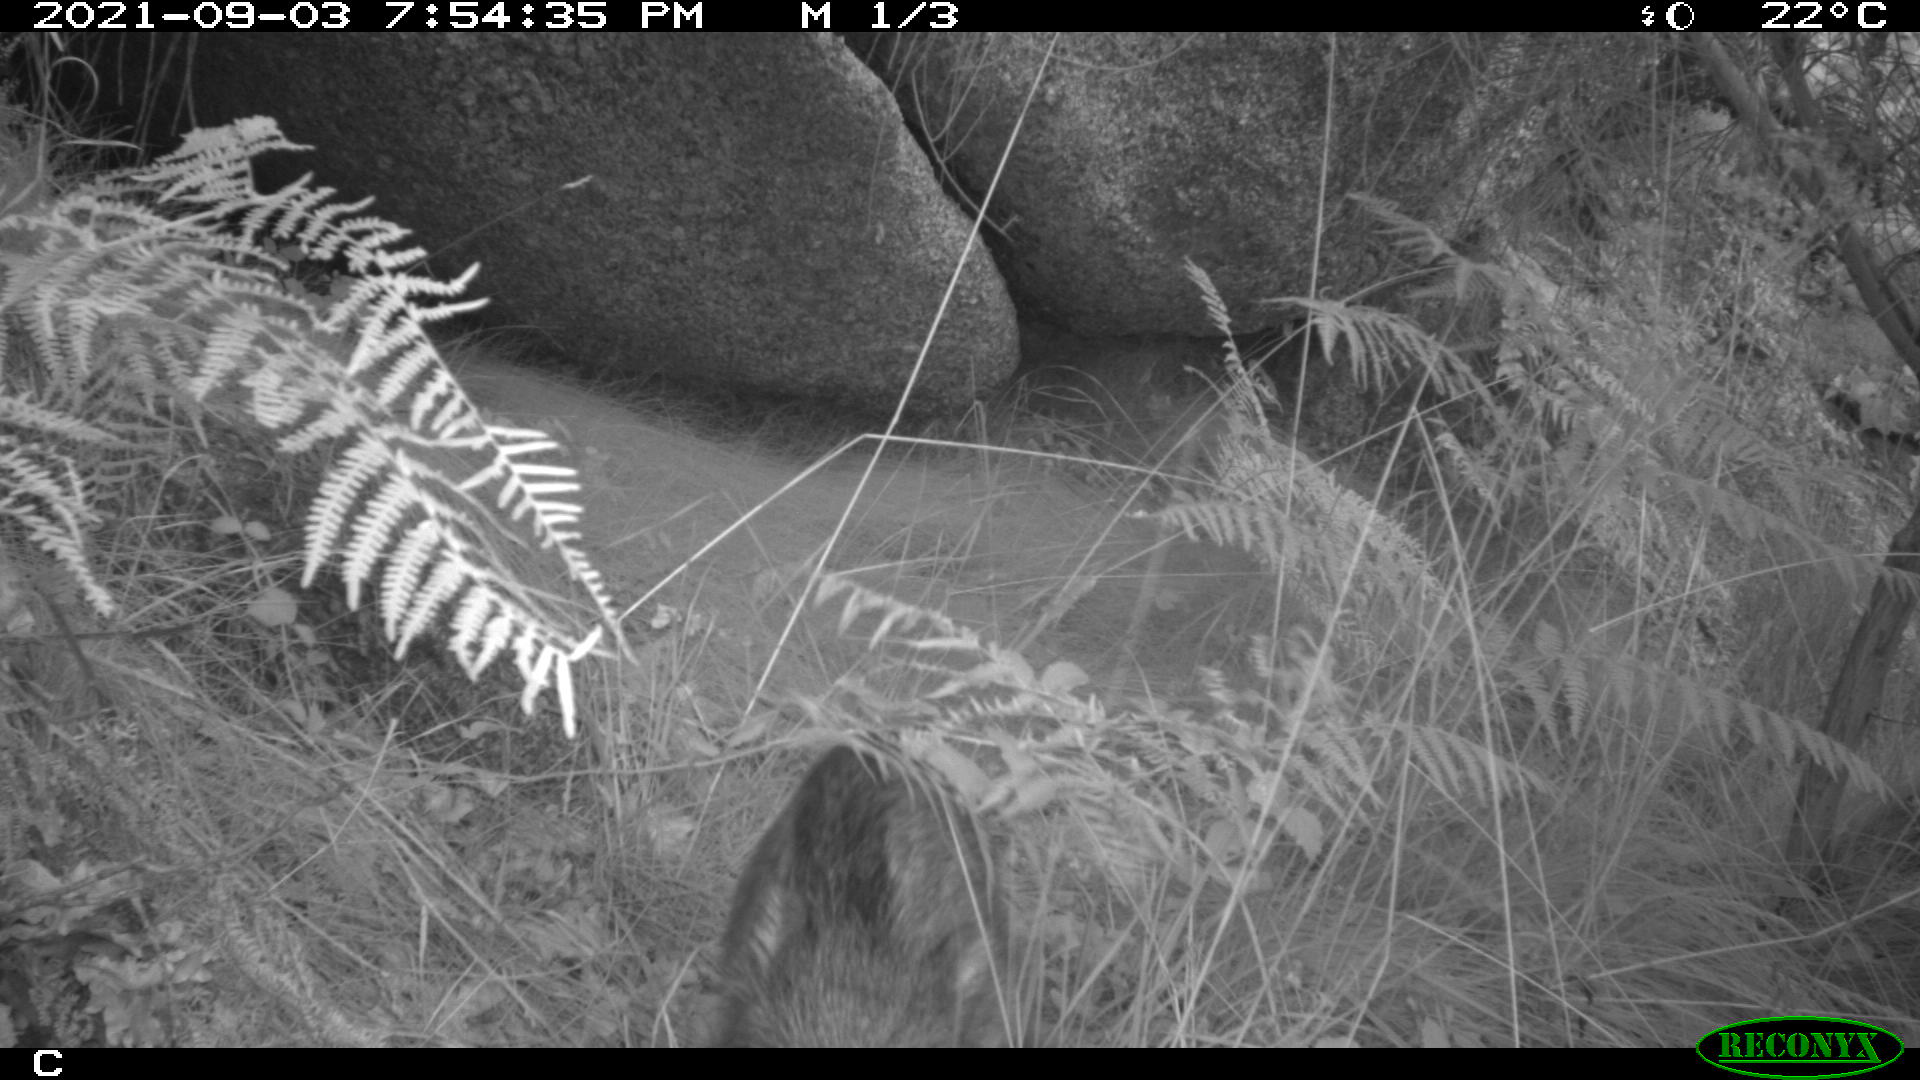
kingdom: Animalia
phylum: Chordata
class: Mammalia
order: Artiodactyla
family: Suidae
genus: Sus
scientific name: Sus scrofa
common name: Wild boar
